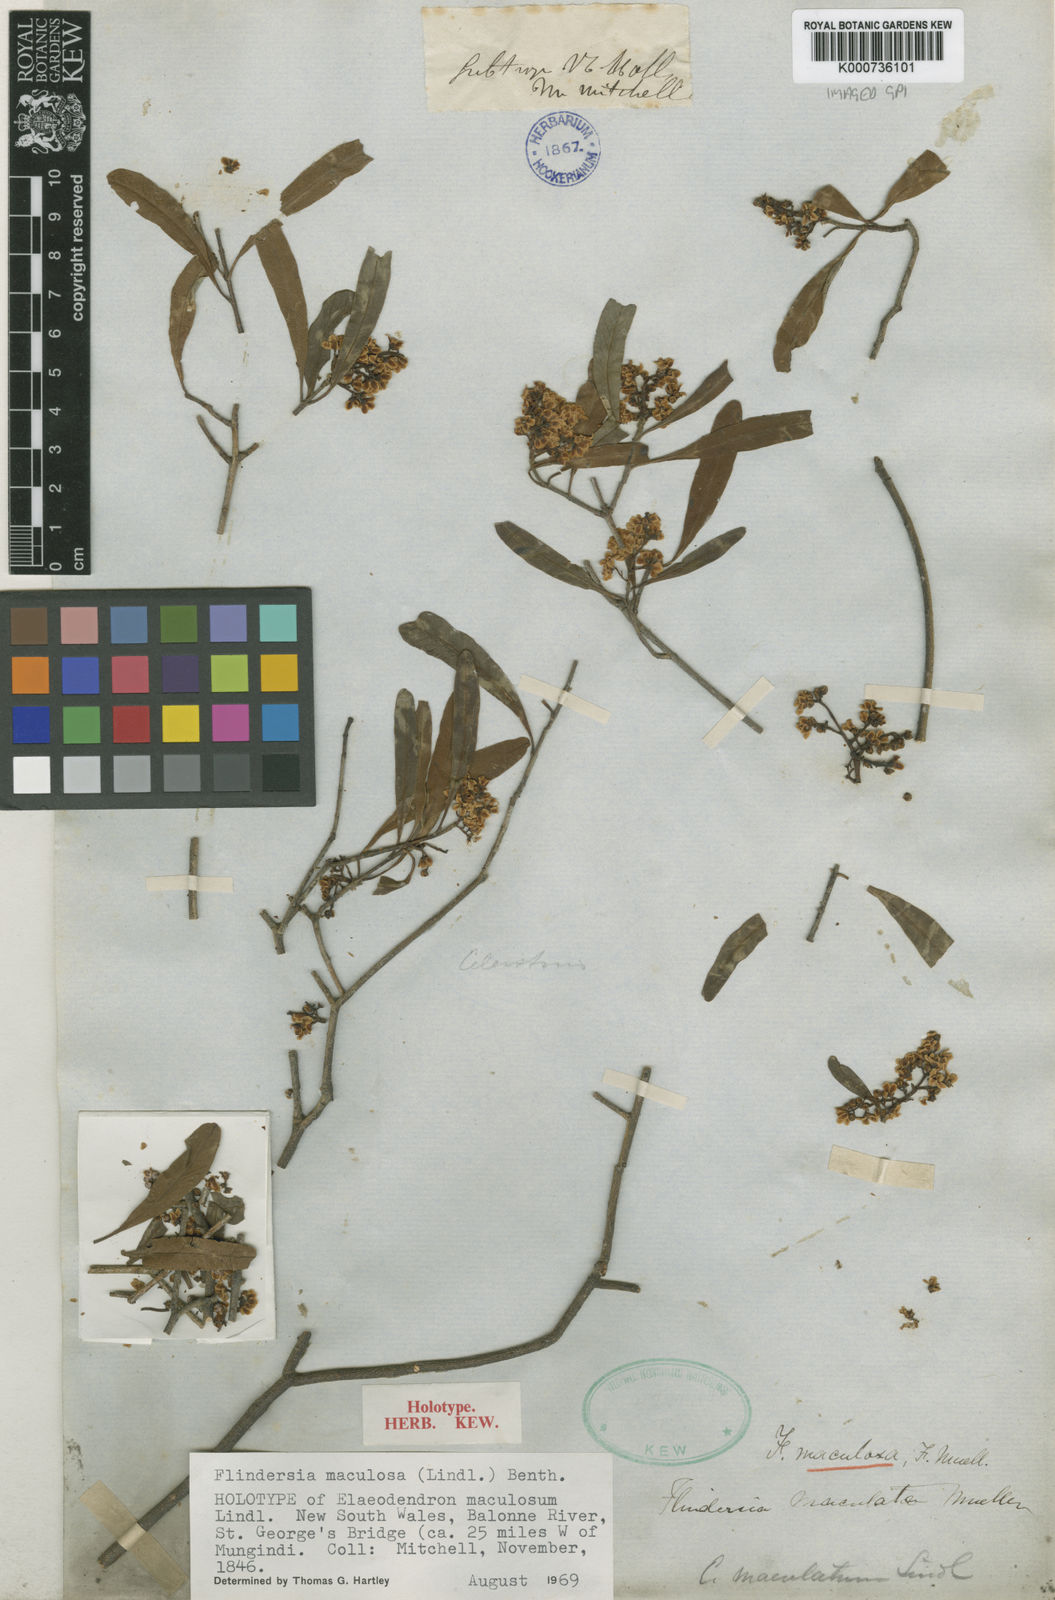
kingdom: Plantae
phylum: Tracheophyta
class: Magnoliopsida
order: Sapindales
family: Rutaceae
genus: Flindersia
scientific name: Flindersia maculosa
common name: Leopardtree
